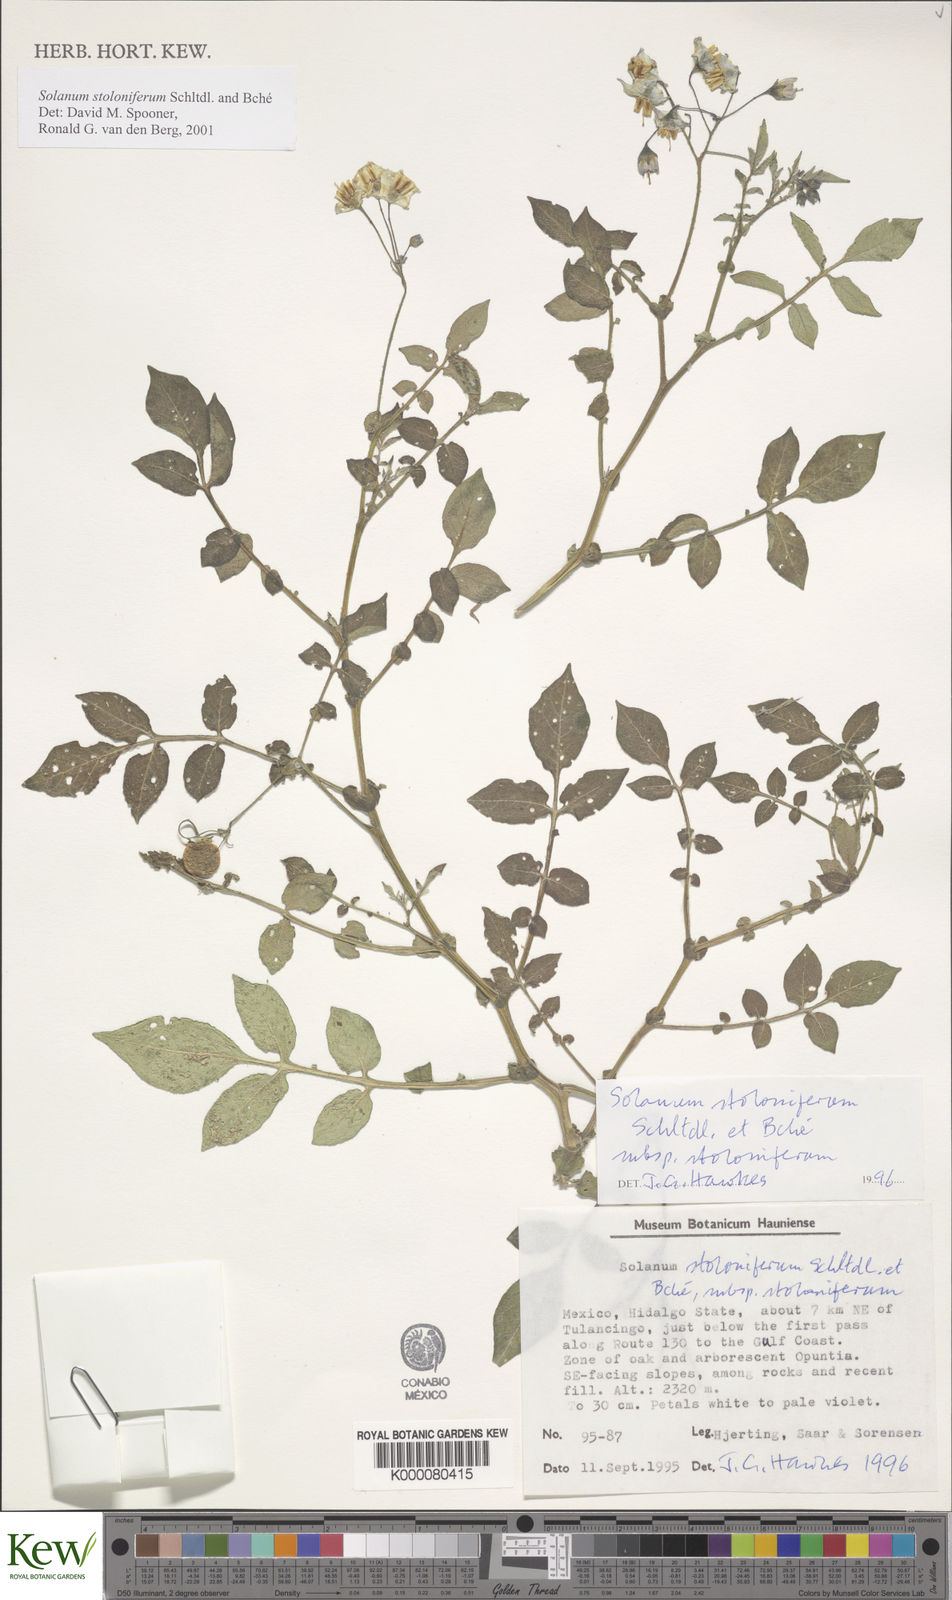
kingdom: Plantae
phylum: Tracheophyta
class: Magnoliopsida
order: Solanales
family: Solanaceae
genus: Solanum
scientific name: Solanum stoloniferum
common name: Fendler's nighshade
